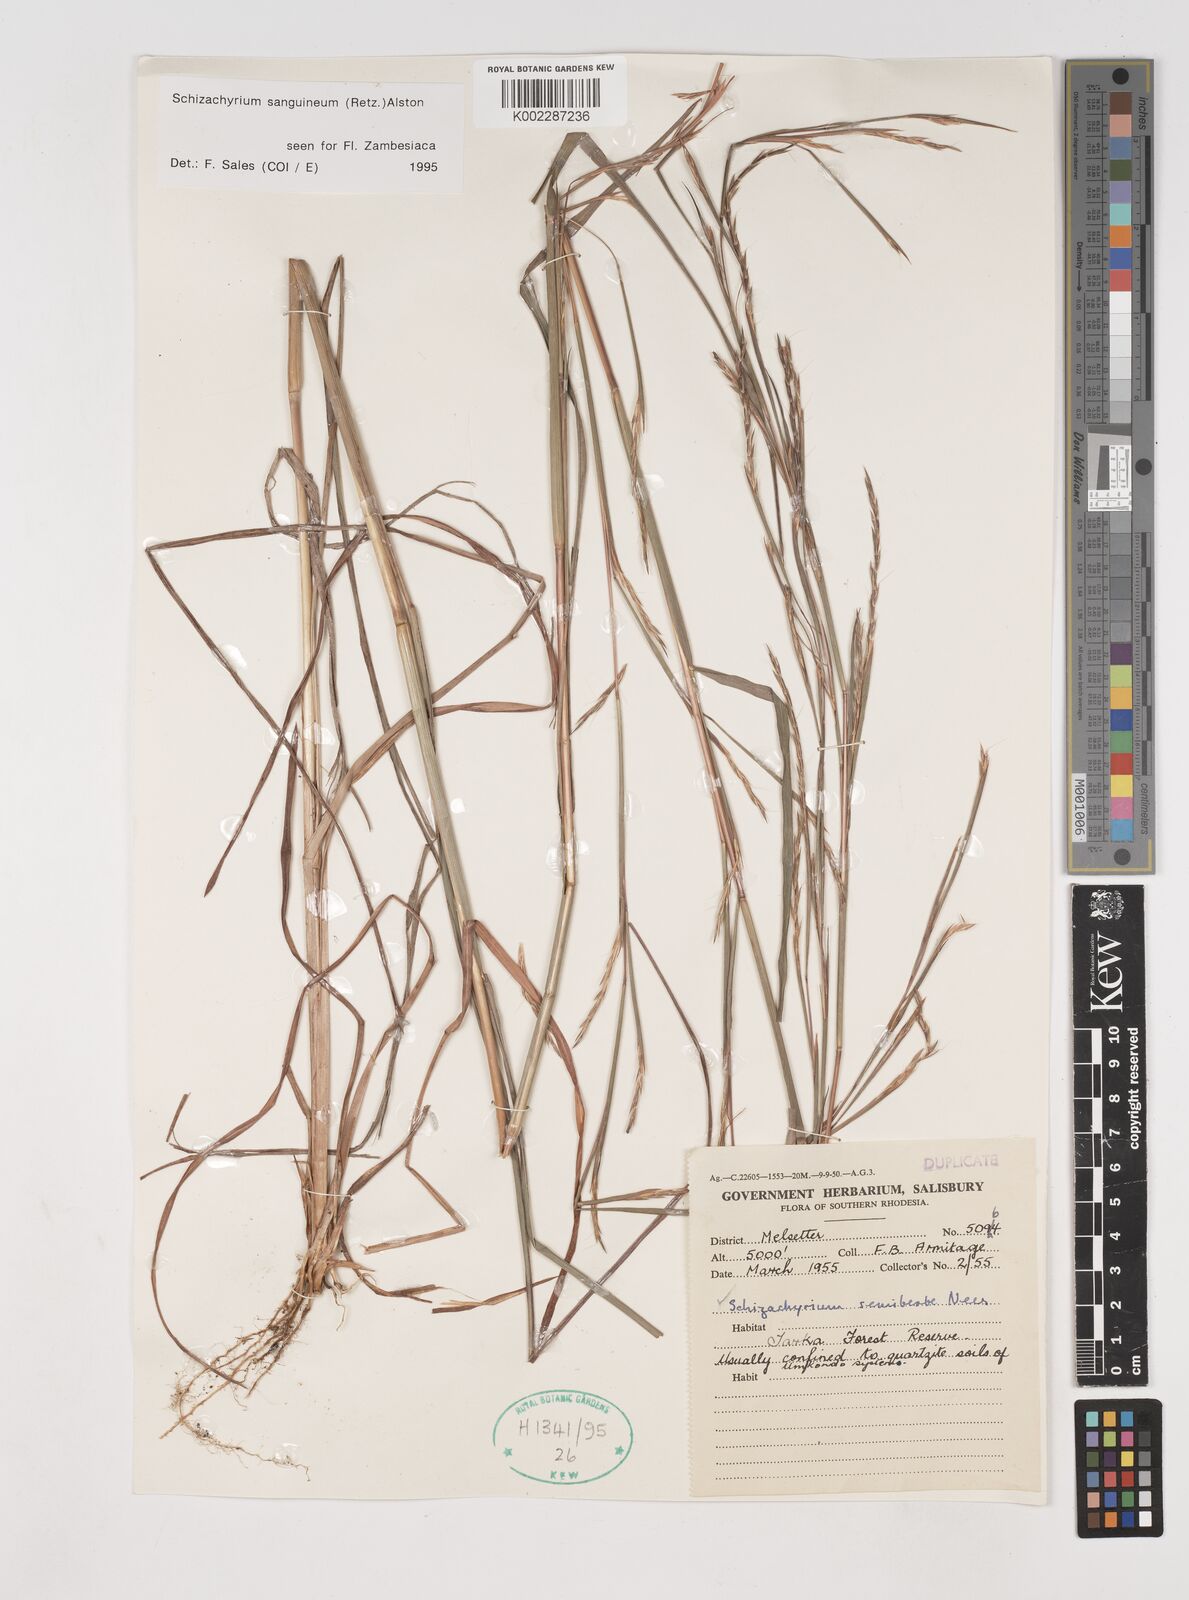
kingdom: Plantae
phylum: Tracheophyta
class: Liliopsida
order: Poales
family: Poaceae
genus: Schizachyrium
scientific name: Schizachyrium sanguineum
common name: Crimson bluestem
